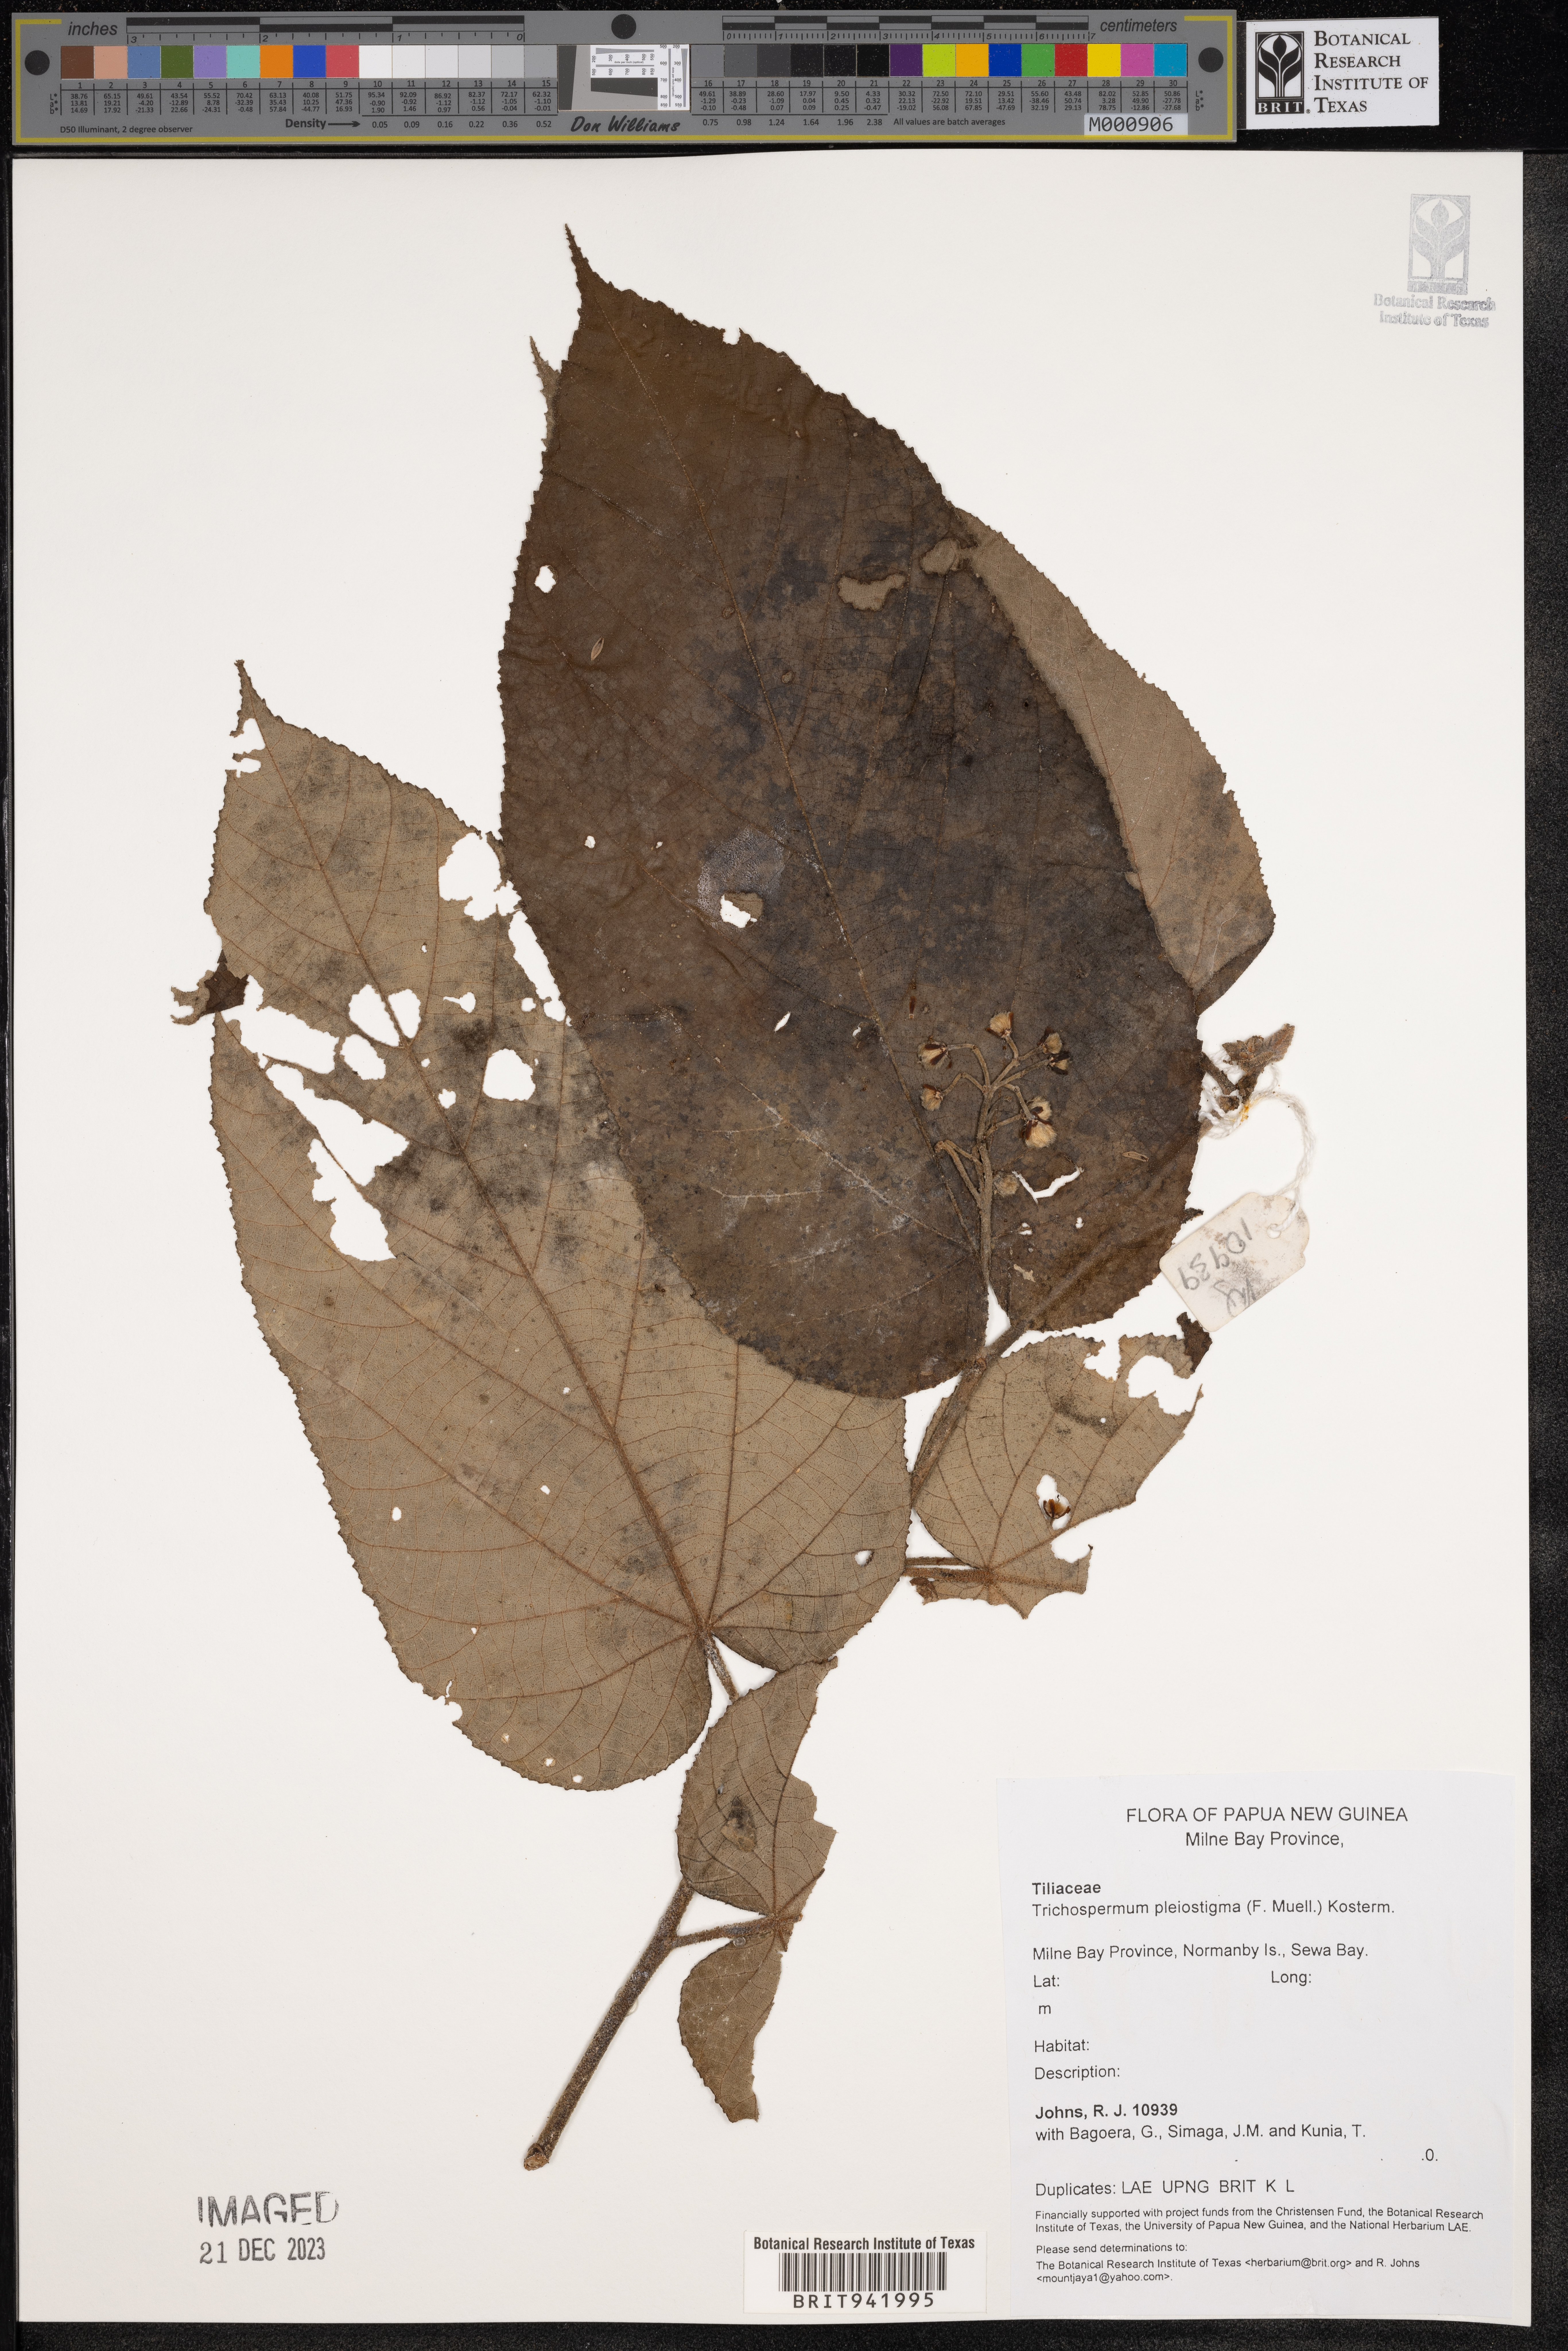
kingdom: Plantae
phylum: Tracheophyta
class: Magnoliopsida
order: Malvales
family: Malvaceae
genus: Trichospermum
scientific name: Trichospermum
